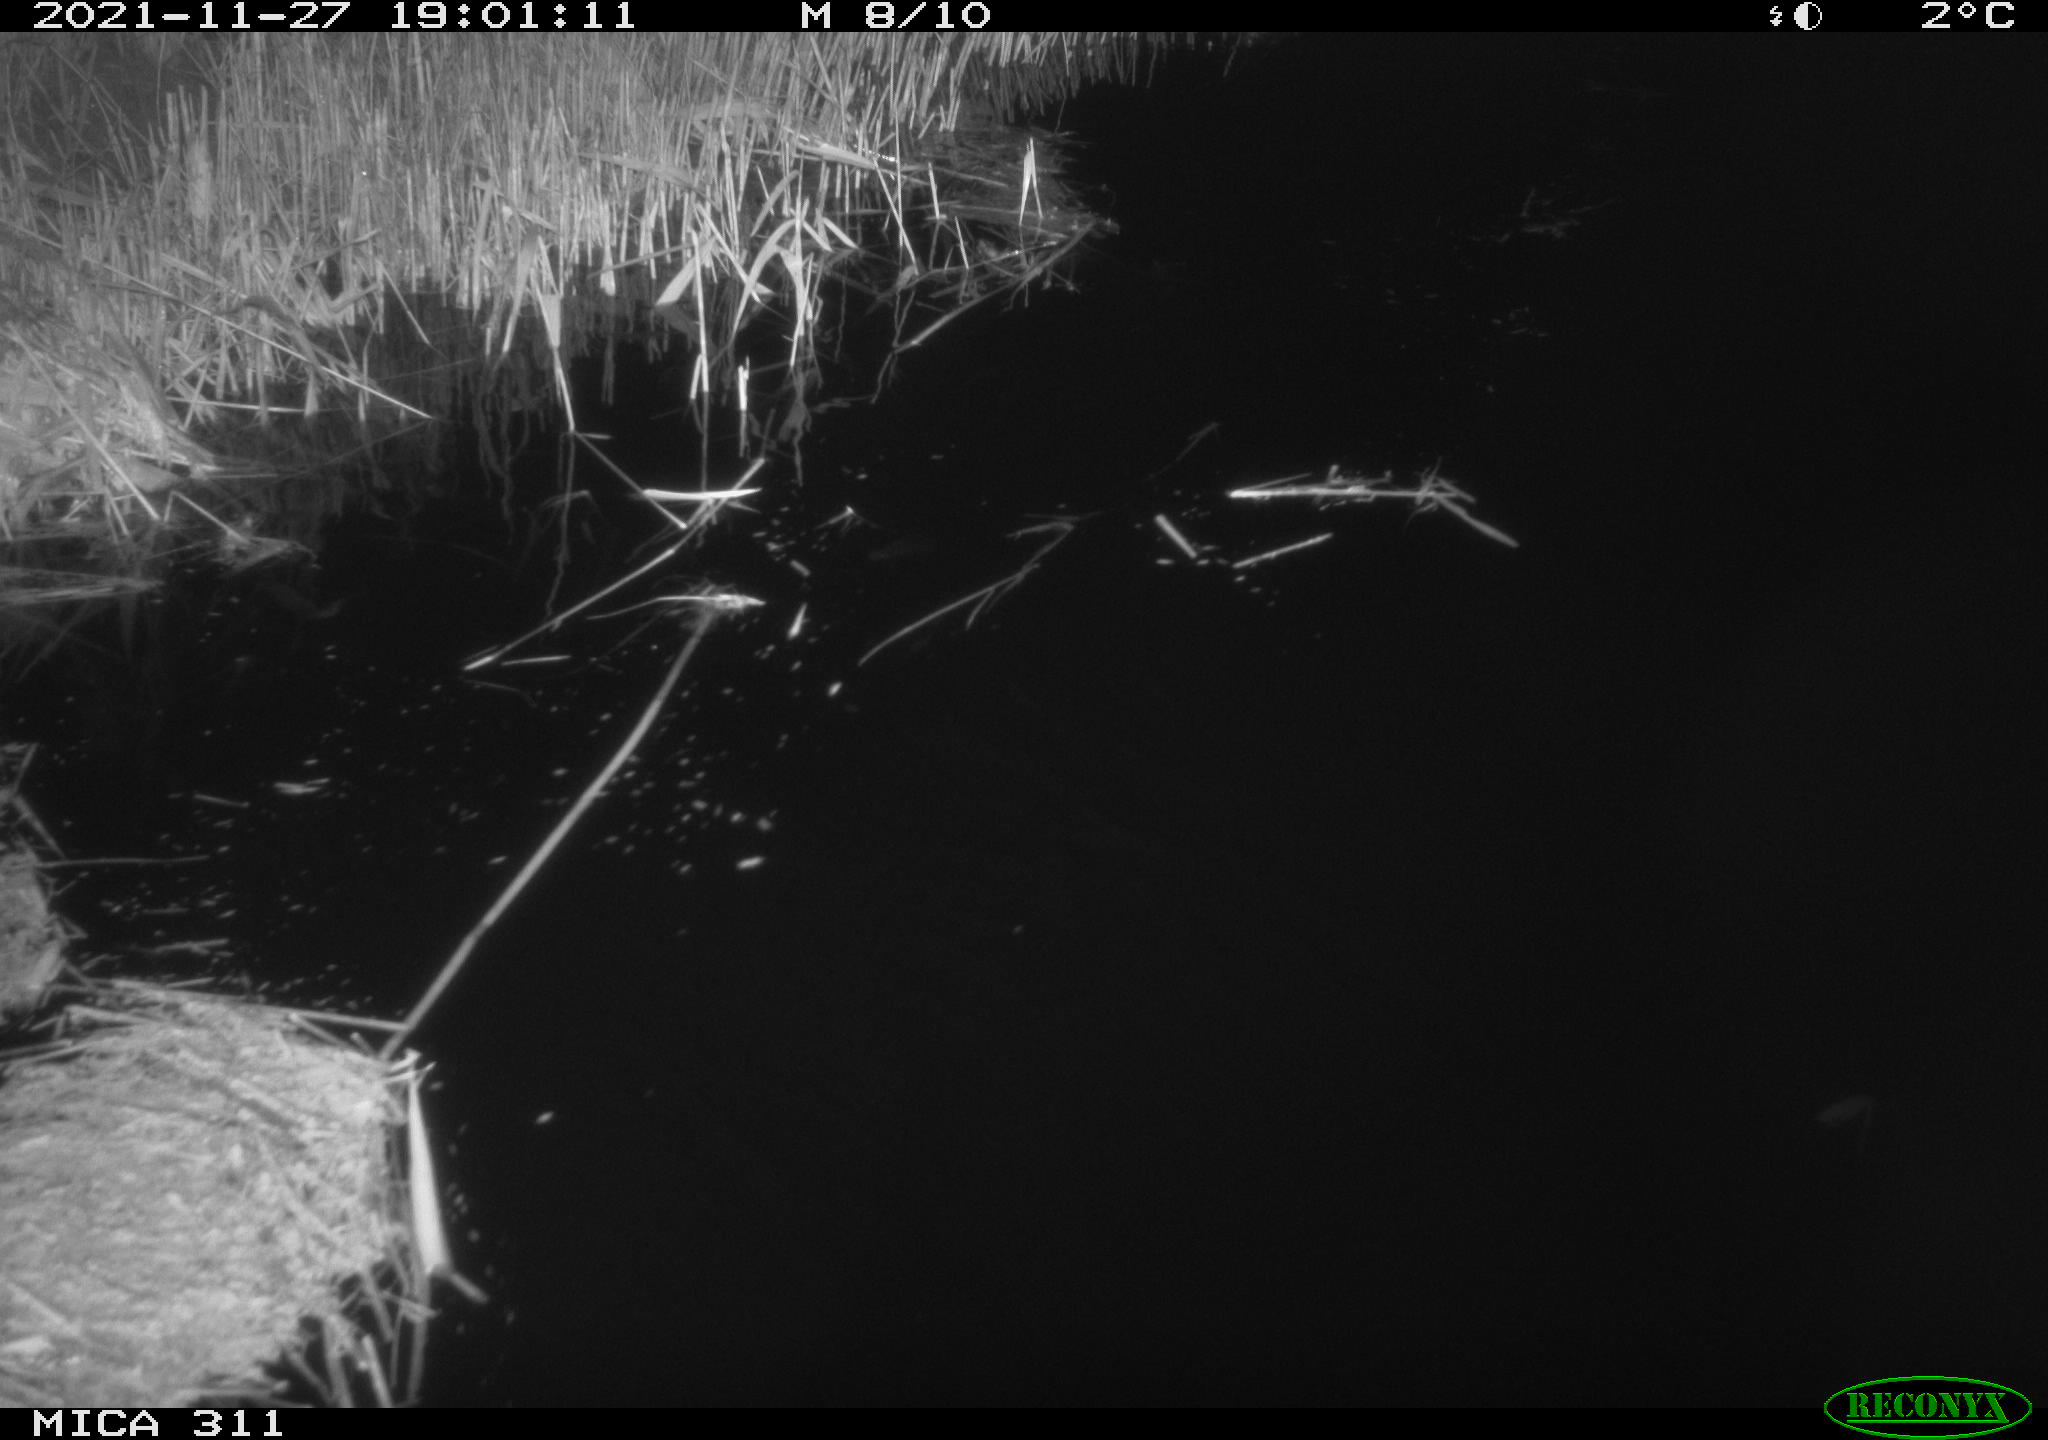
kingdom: Animalia
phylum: Chordata
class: Mammalia
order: Rodentia
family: Muridae
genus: Rattus
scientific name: Rattus norvegicus
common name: Brown rat
